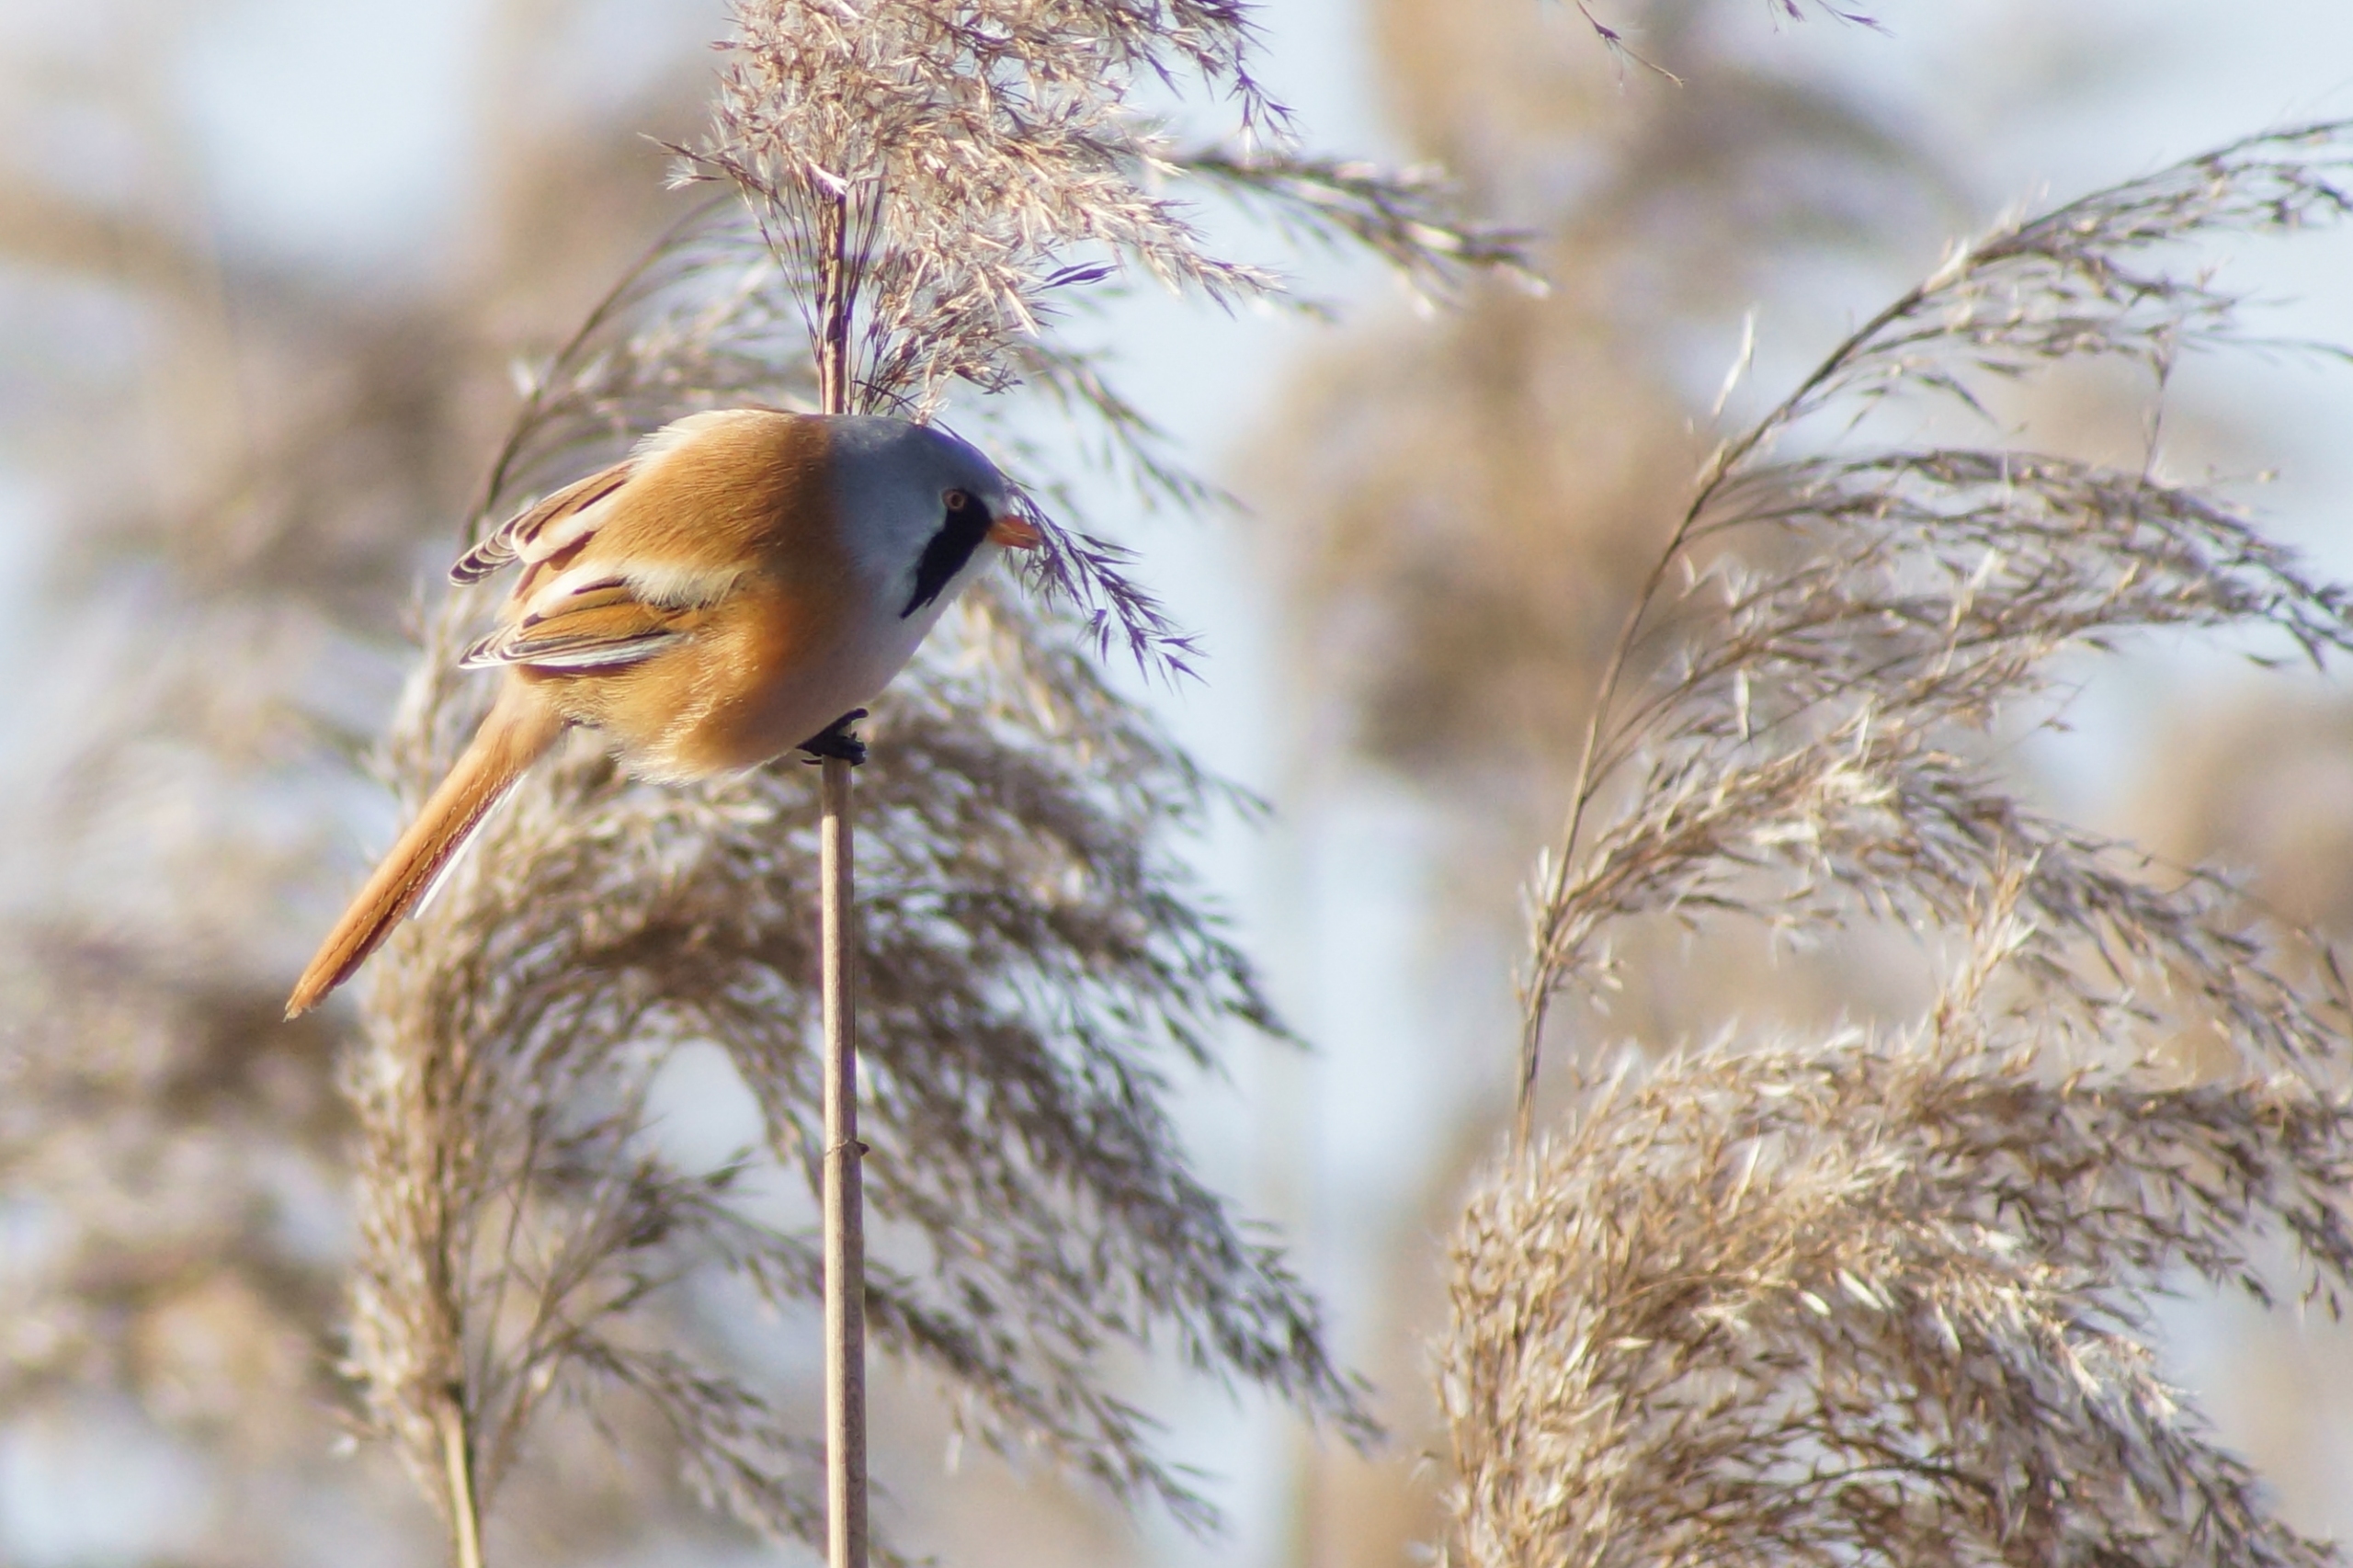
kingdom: Animalia
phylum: Chordata
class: Aves
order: Passeriformes
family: Panuridae
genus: Panurus
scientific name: Panurus biarmicus
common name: Skægmejse
